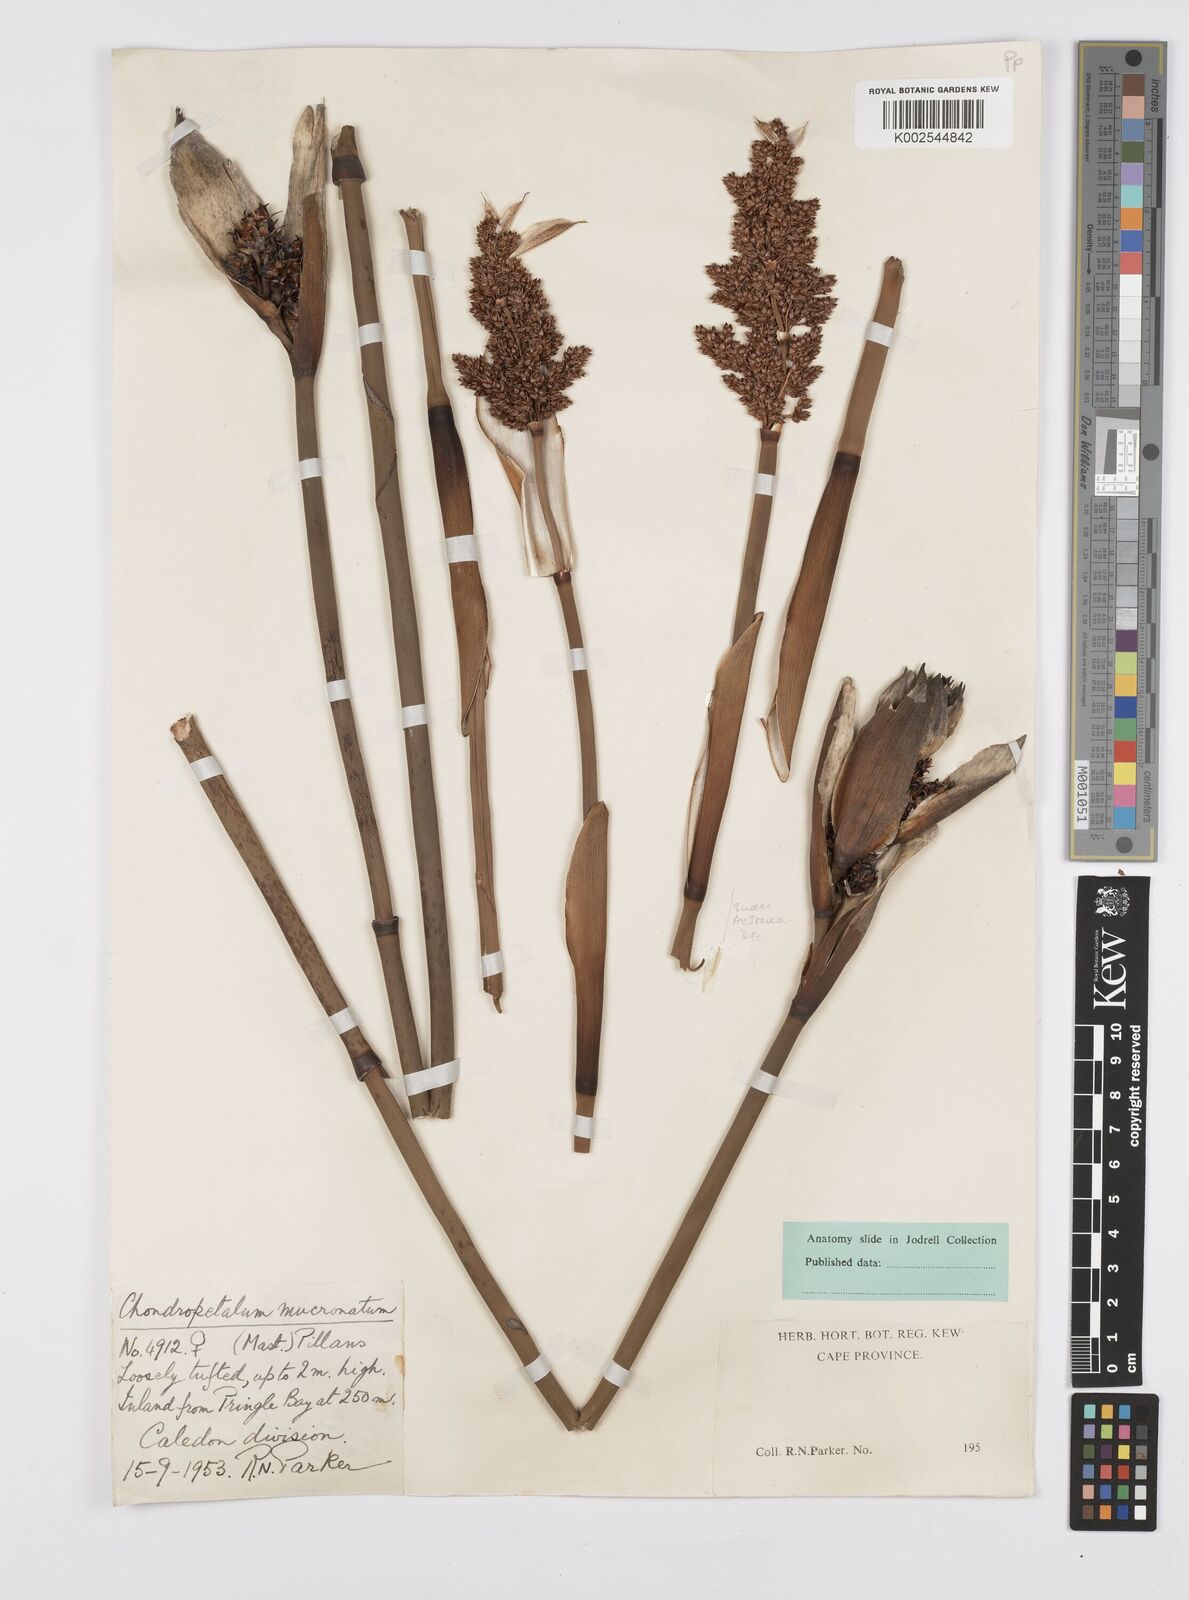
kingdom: Plantae
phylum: Tracheophyta
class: Liliopsida
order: Poales
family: Restionaceae
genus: Elegia
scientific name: Elegia mucronata
